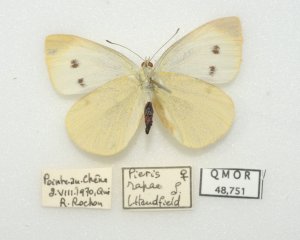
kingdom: Animalia
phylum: Arthropoda
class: Insecta
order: Lepidoptera
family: Pieridae
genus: Pieris
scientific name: Pieris rapae
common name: Cabbage White
